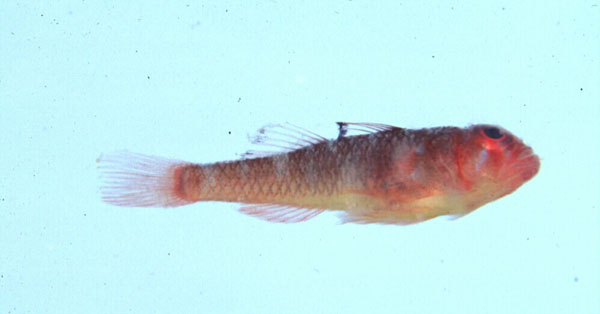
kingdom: Animalia
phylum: Chordata
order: Perciformes
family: Gobiidae
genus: Trimma
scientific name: Trimma unisquamis
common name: Blackmargin pygmy goby
